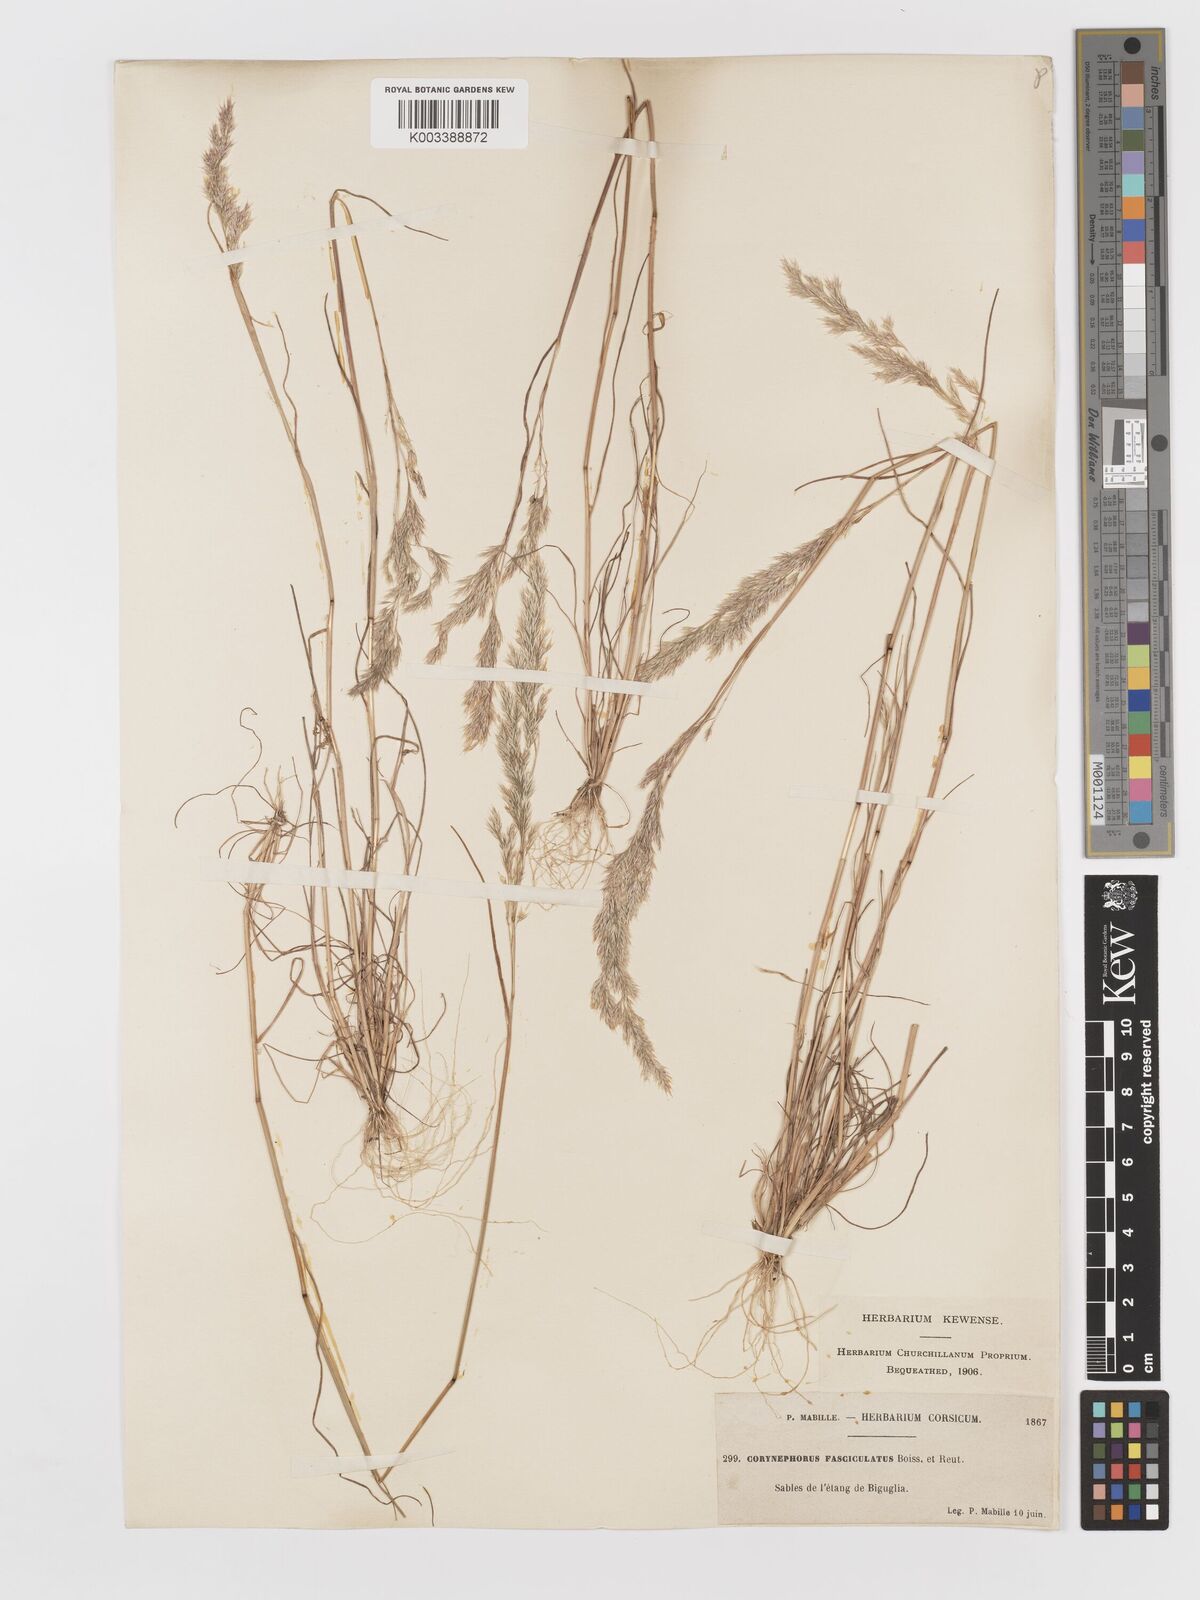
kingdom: Plantae
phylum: Tracheophyta
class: Liliopsida
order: Poales
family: Poaceae
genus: Corynephorus
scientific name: Corynephorus fasciculatus
